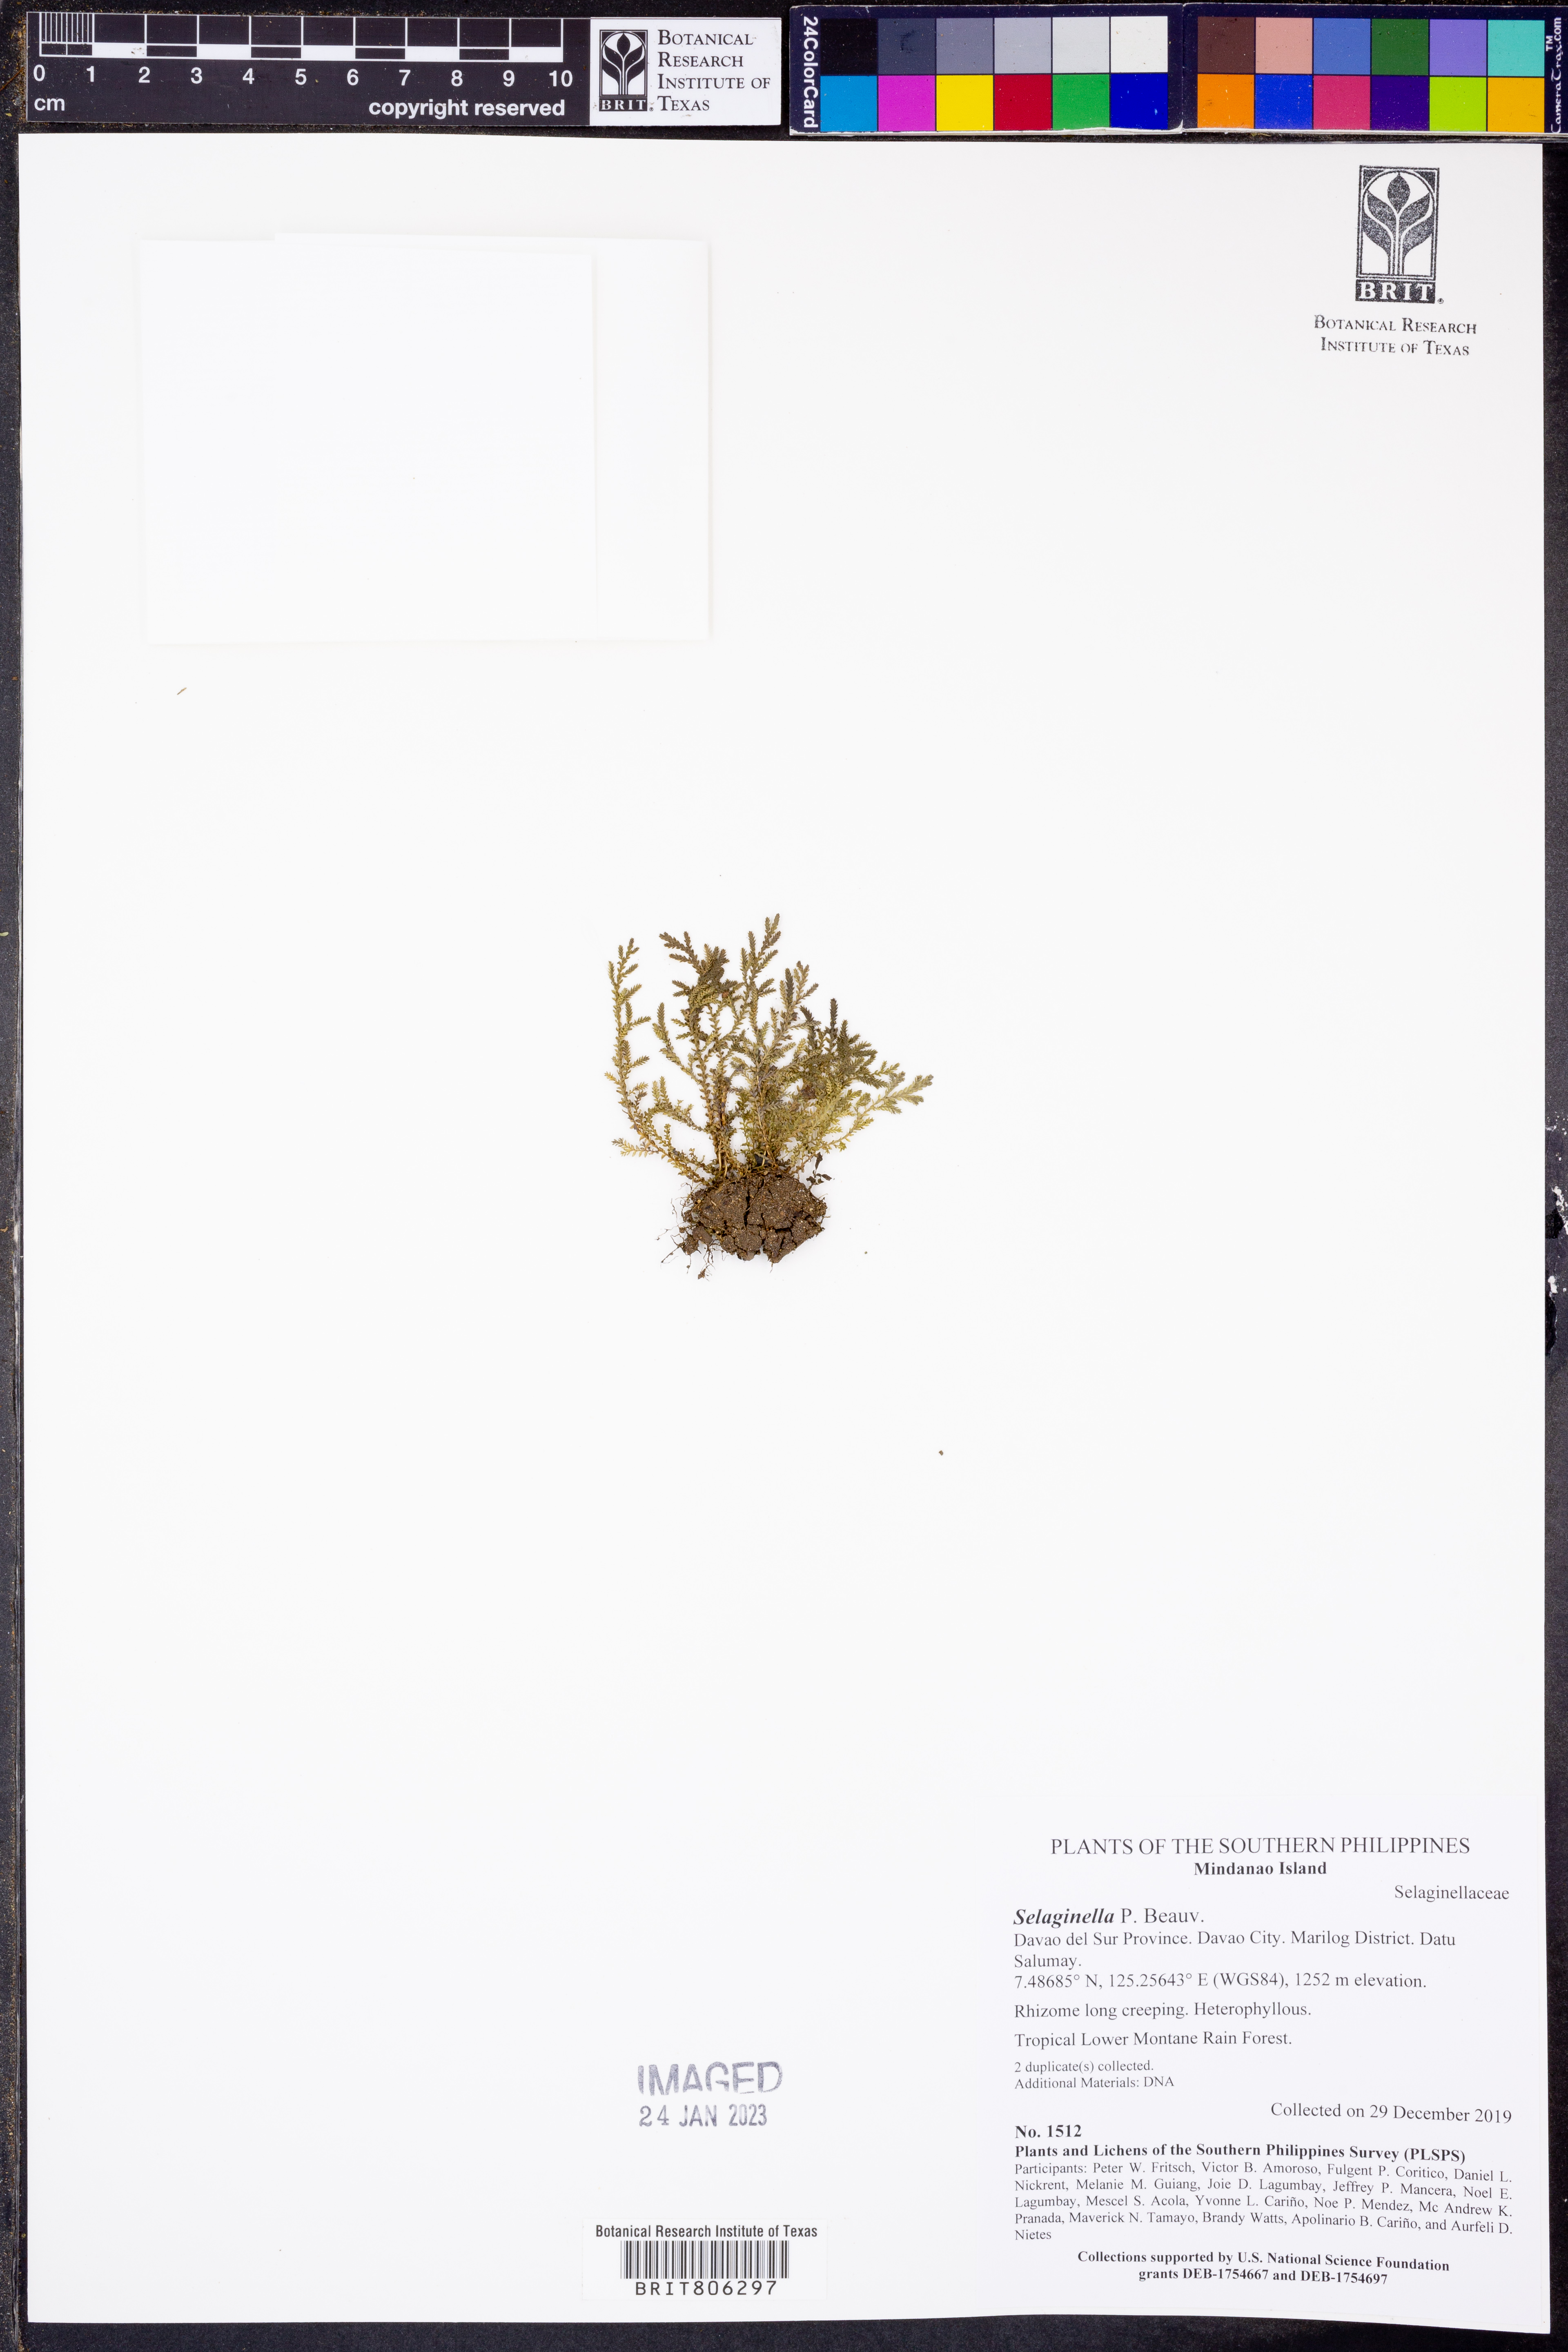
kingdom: Plantae
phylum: Tracheophyta
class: Lycopodiopsida
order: Selaginellales
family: Selaginellaceae
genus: Selaginella
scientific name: Selaginella
